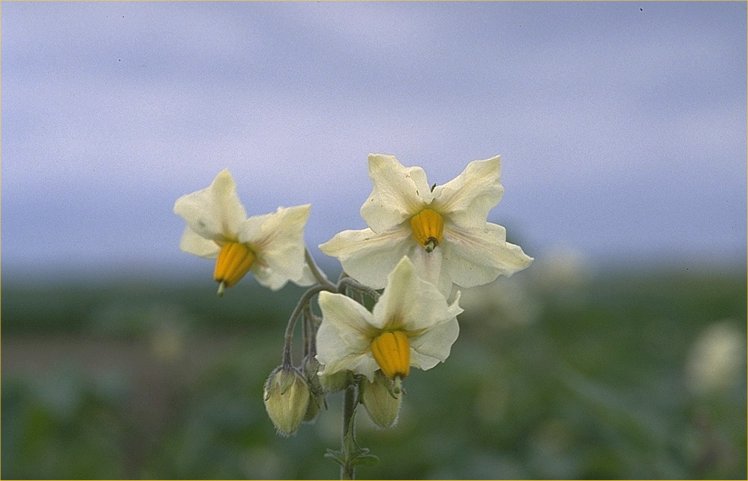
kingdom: Plantae
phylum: Tracheophyta
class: Magnoliopsida
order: Solanales
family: Solanaceae
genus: Solanum
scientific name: Solanum tuberosum
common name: Potato
